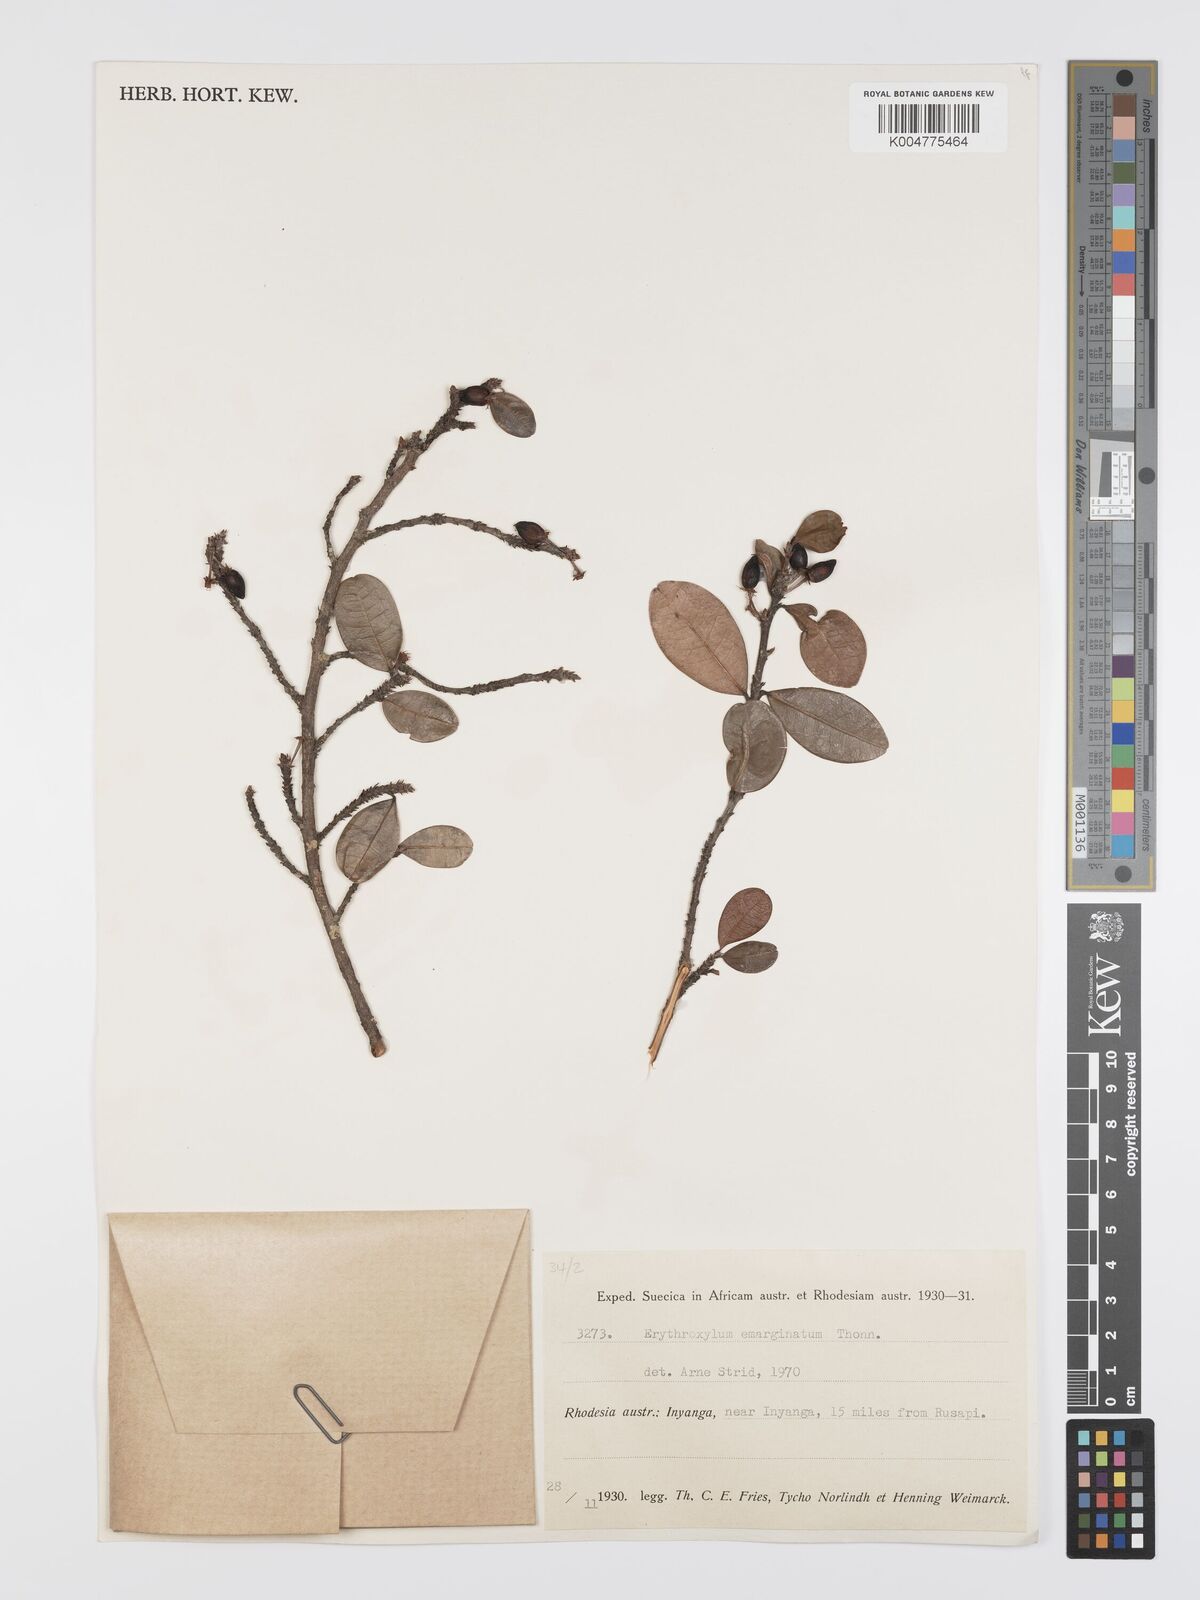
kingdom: Plantae
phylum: Tracheophyta
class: Magnoliopsida
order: Malpighiales
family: Erythroxylaceae
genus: Erythroxylum
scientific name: Erythroxylum emarginatum
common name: African coca-tree
